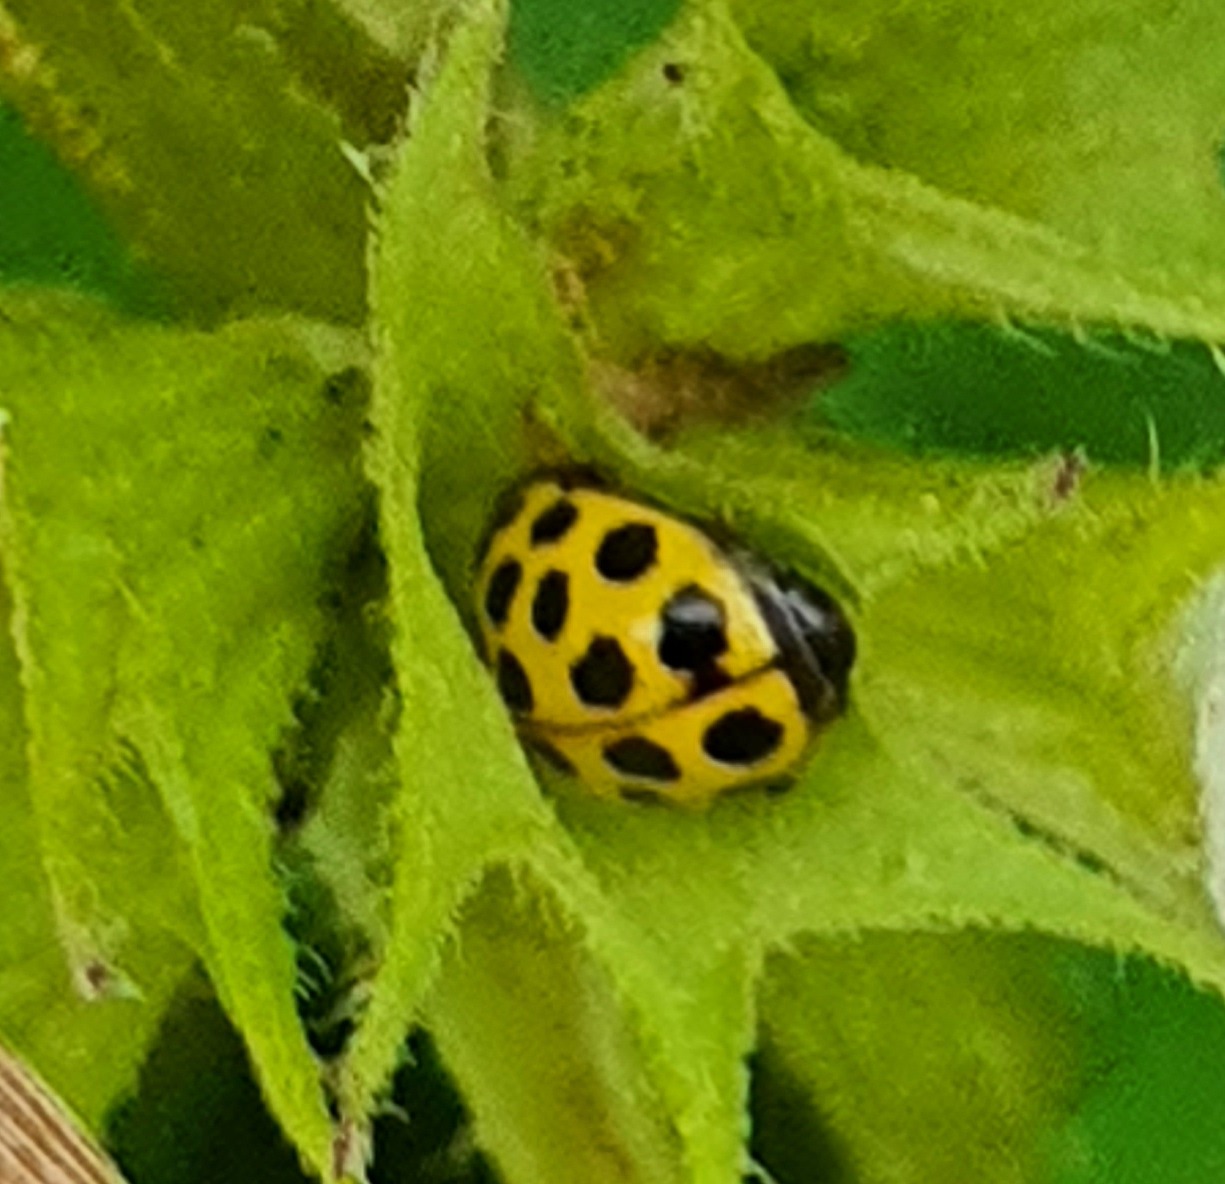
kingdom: Animalia
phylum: Arthropoda
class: Insecta
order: Coleoptera
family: Coccinellidae
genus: Psyllobora
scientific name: Psyllobora vigintiduopunctata
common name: Toogtyveplettet mariehøne
